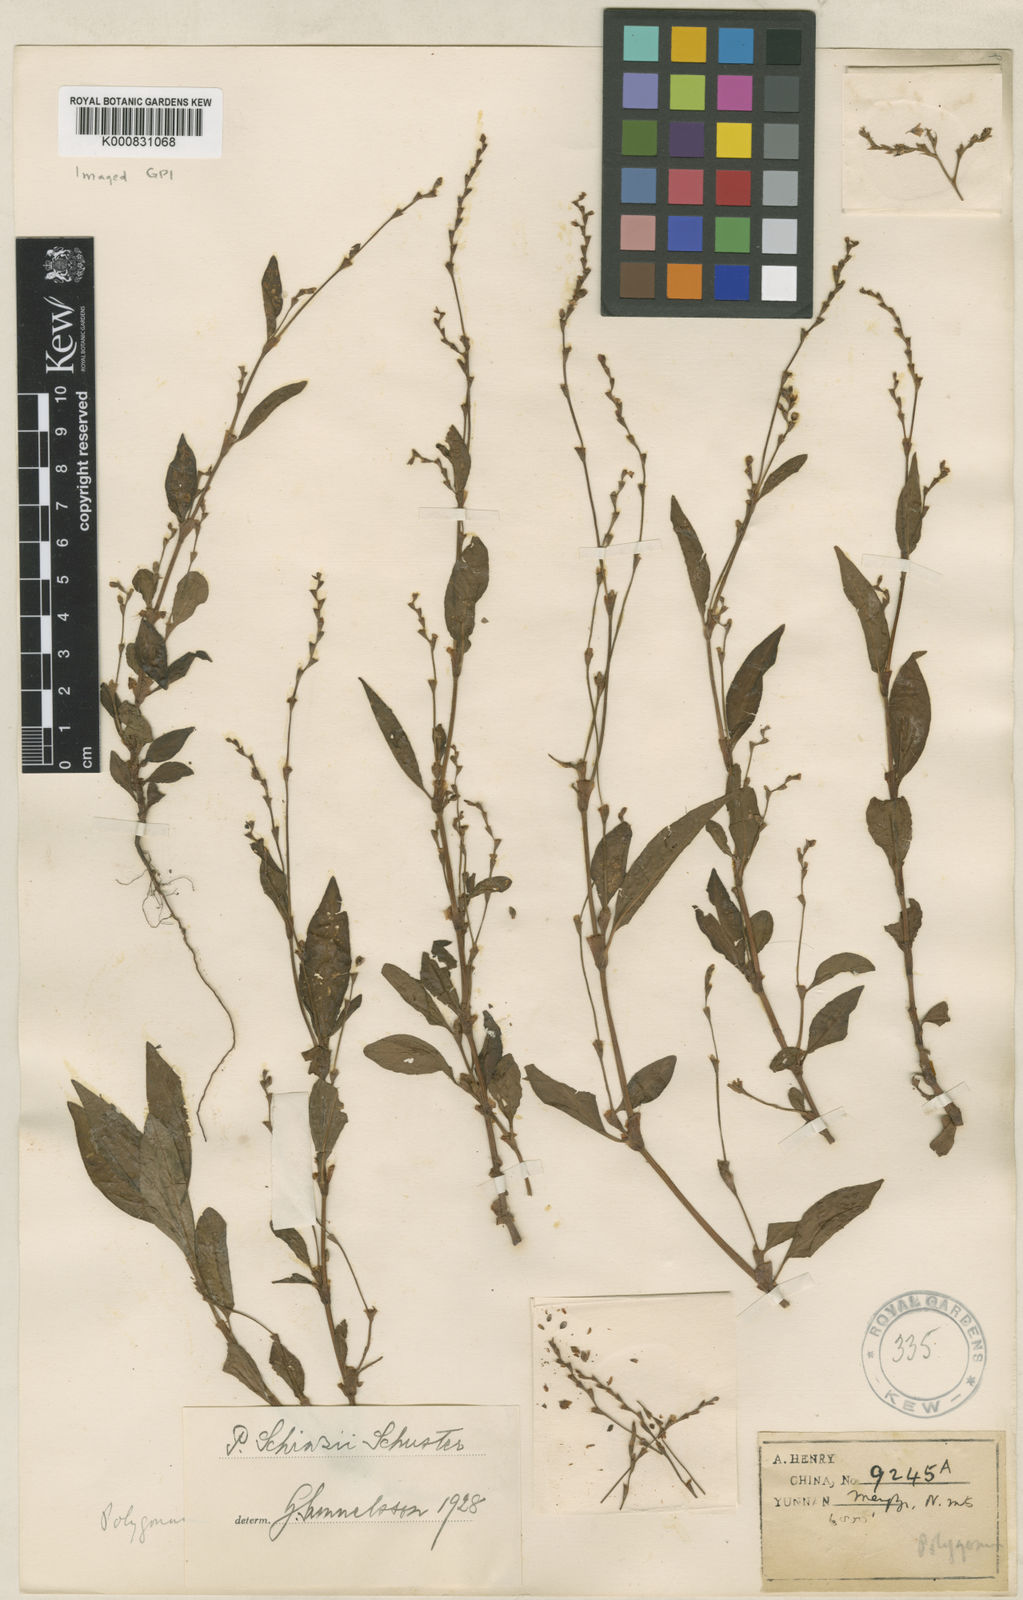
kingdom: Plantae
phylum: Tracheophyta
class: Magnoliopsida
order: Caryophyllales
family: Polygonaceae
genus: Persicaria
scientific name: Persicaria
